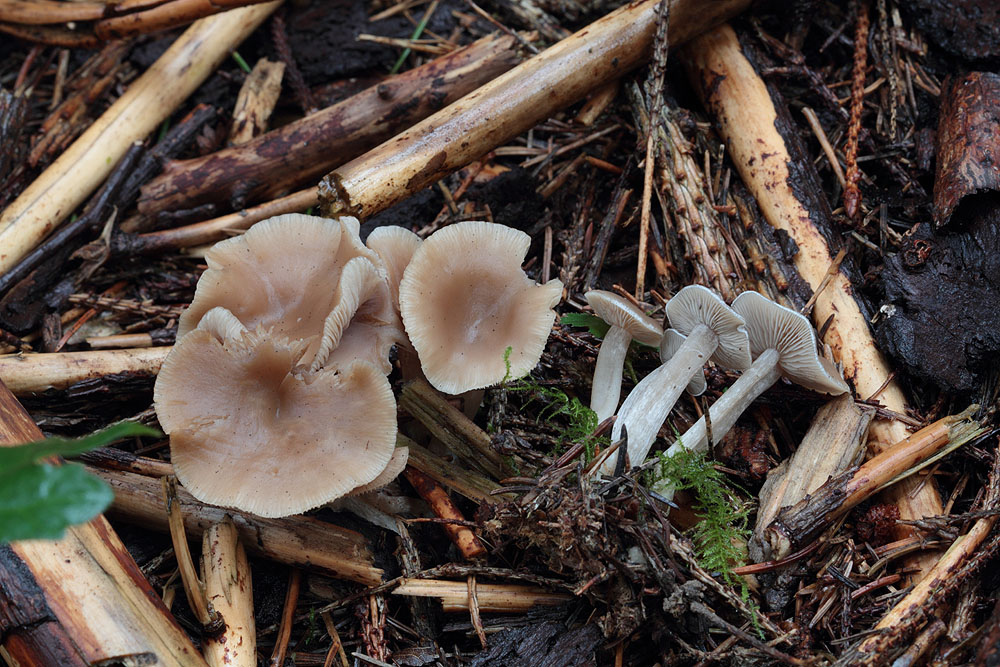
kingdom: Fungi
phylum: Basidiomycota
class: Agaricomycetes
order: Agaricales
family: Tricholomataceae
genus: Clitocybe
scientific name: Clitocybe fragrans
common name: vellugtende tragthat
